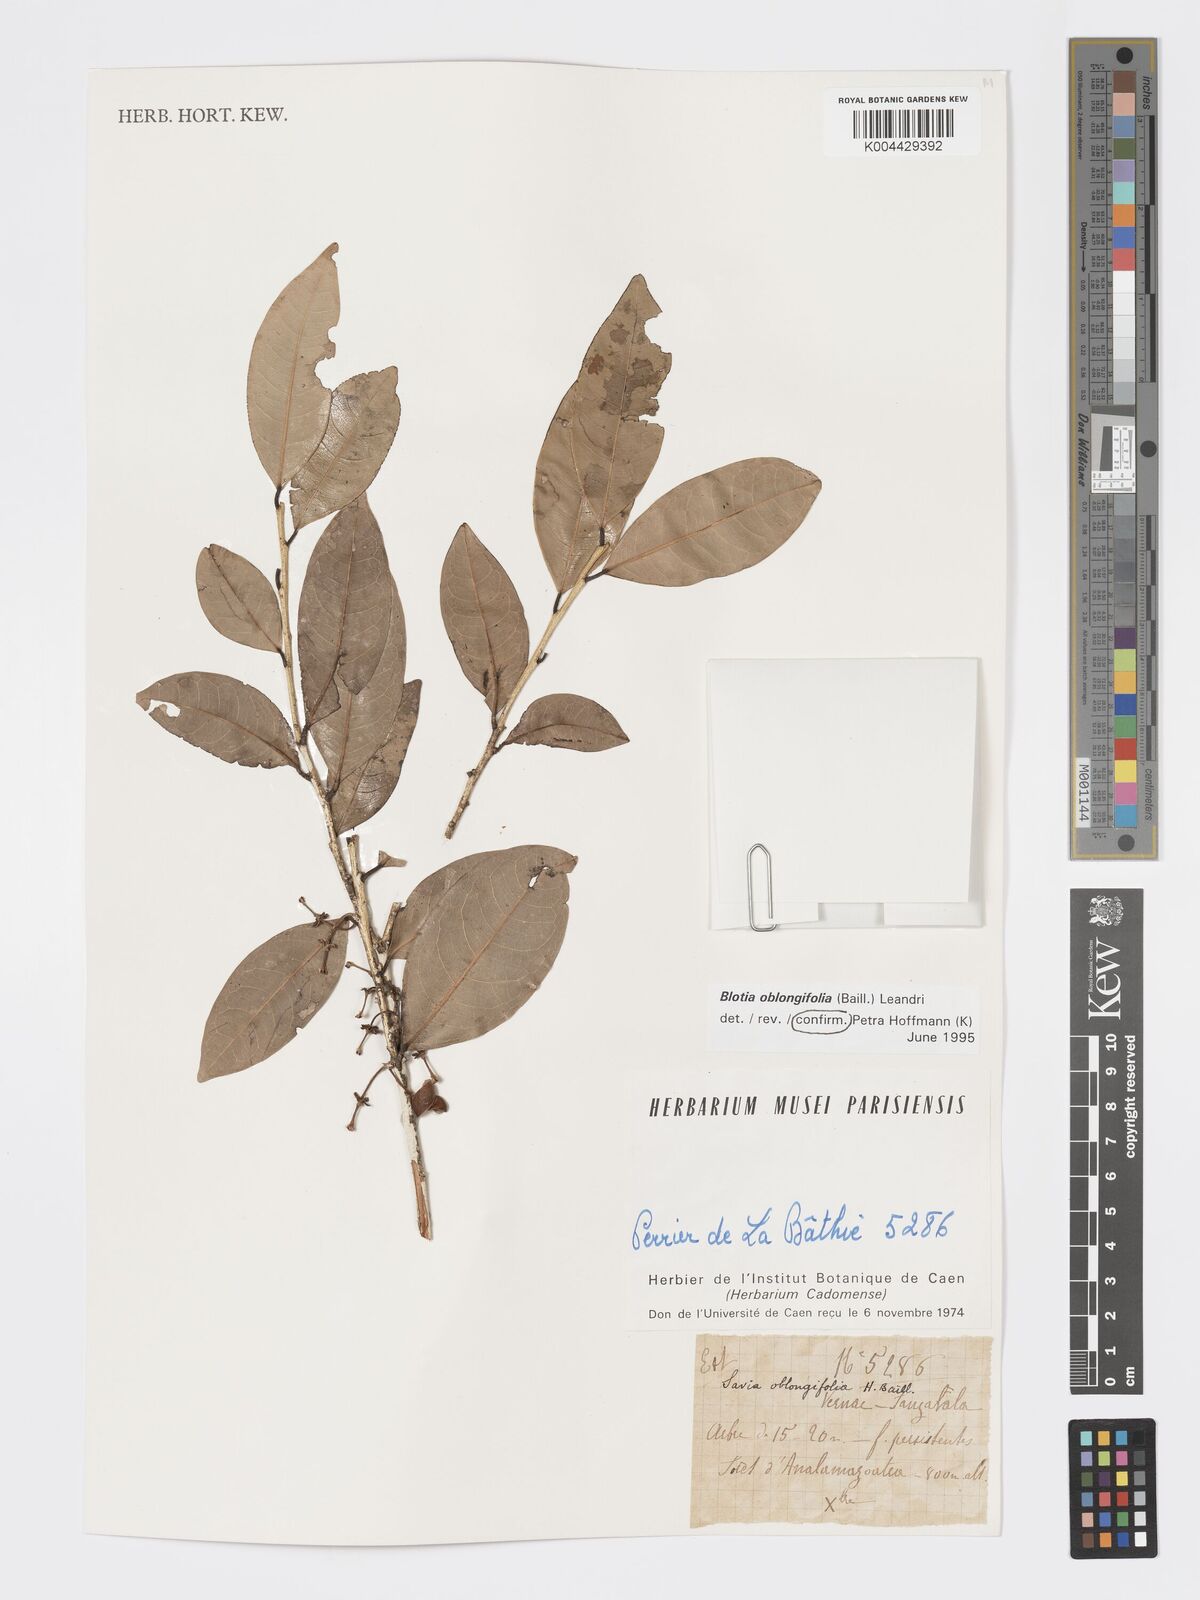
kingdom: Plantae
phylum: Tracheophyta
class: Magnoliopsida
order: Malpighiales
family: Phyllanthaceae
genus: Wielandia
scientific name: Wielandia oblongifolia
